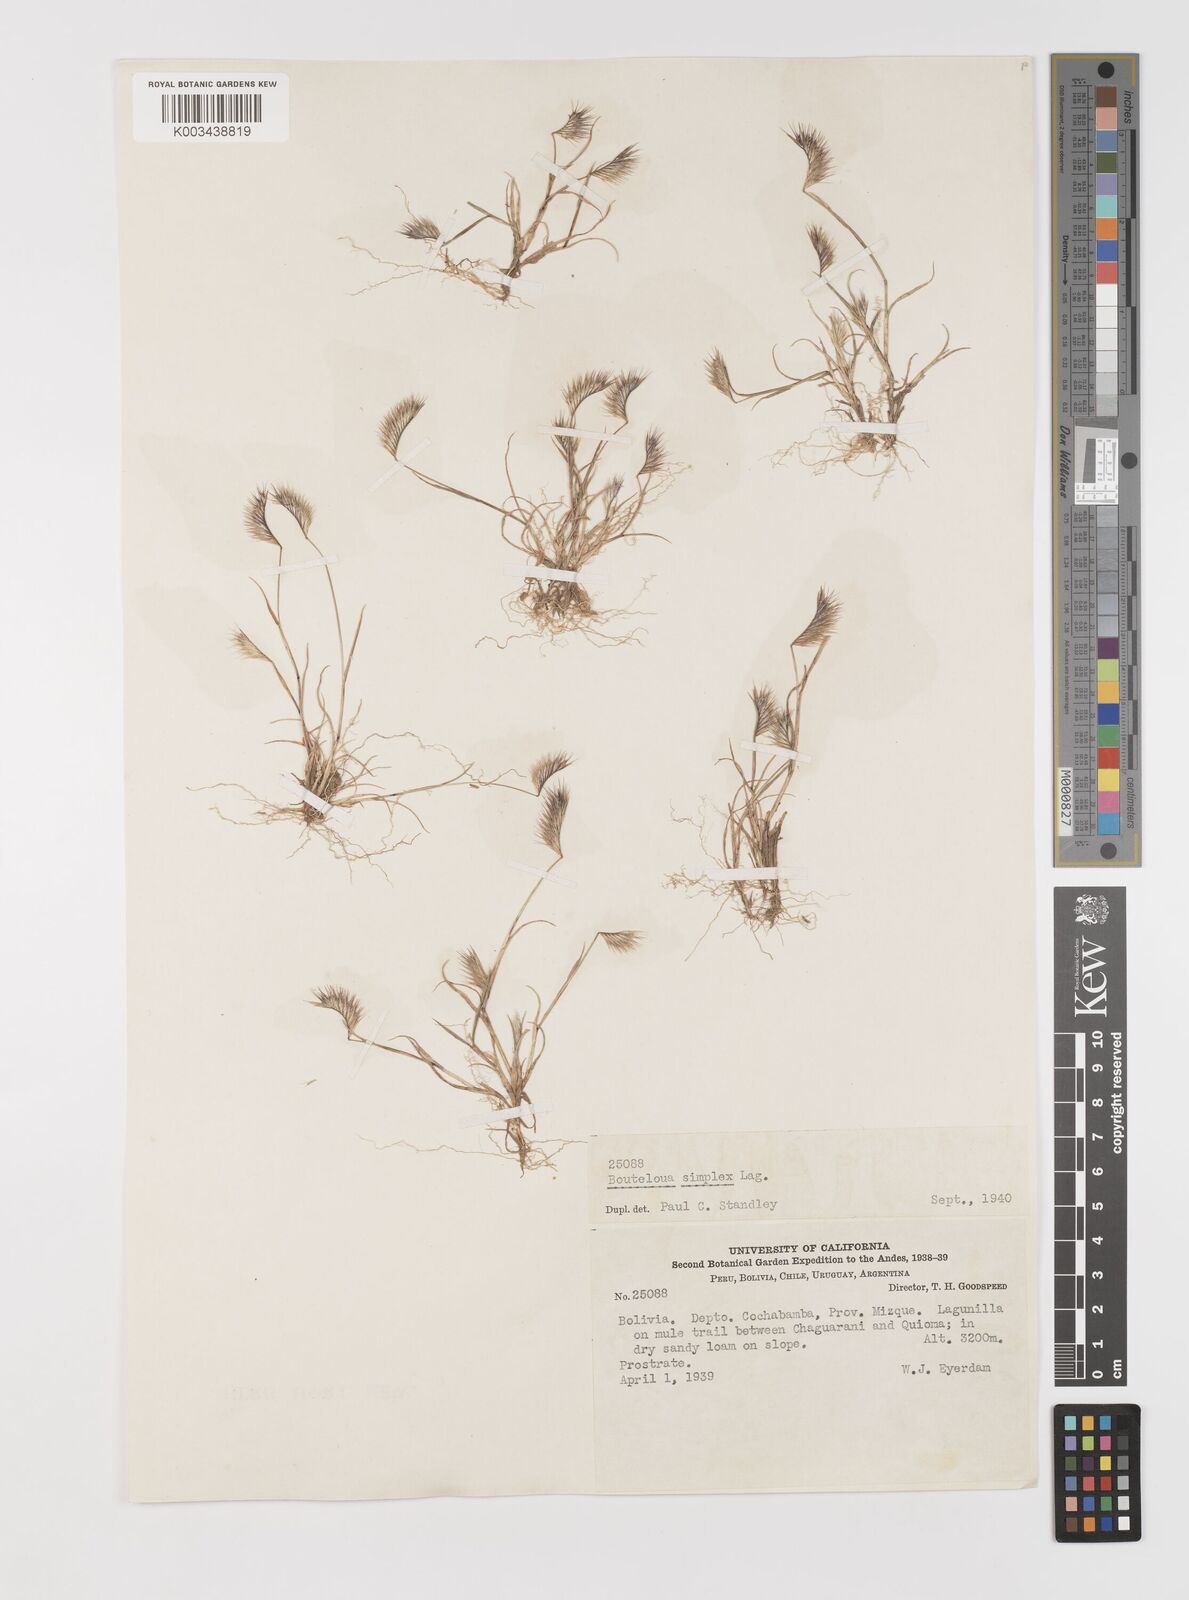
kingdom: Plantae
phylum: Tracheophyta
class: Liliopsida
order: Poales
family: Poaceae
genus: Bouteloua
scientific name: Bouteloua simplex
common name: Mat grama
